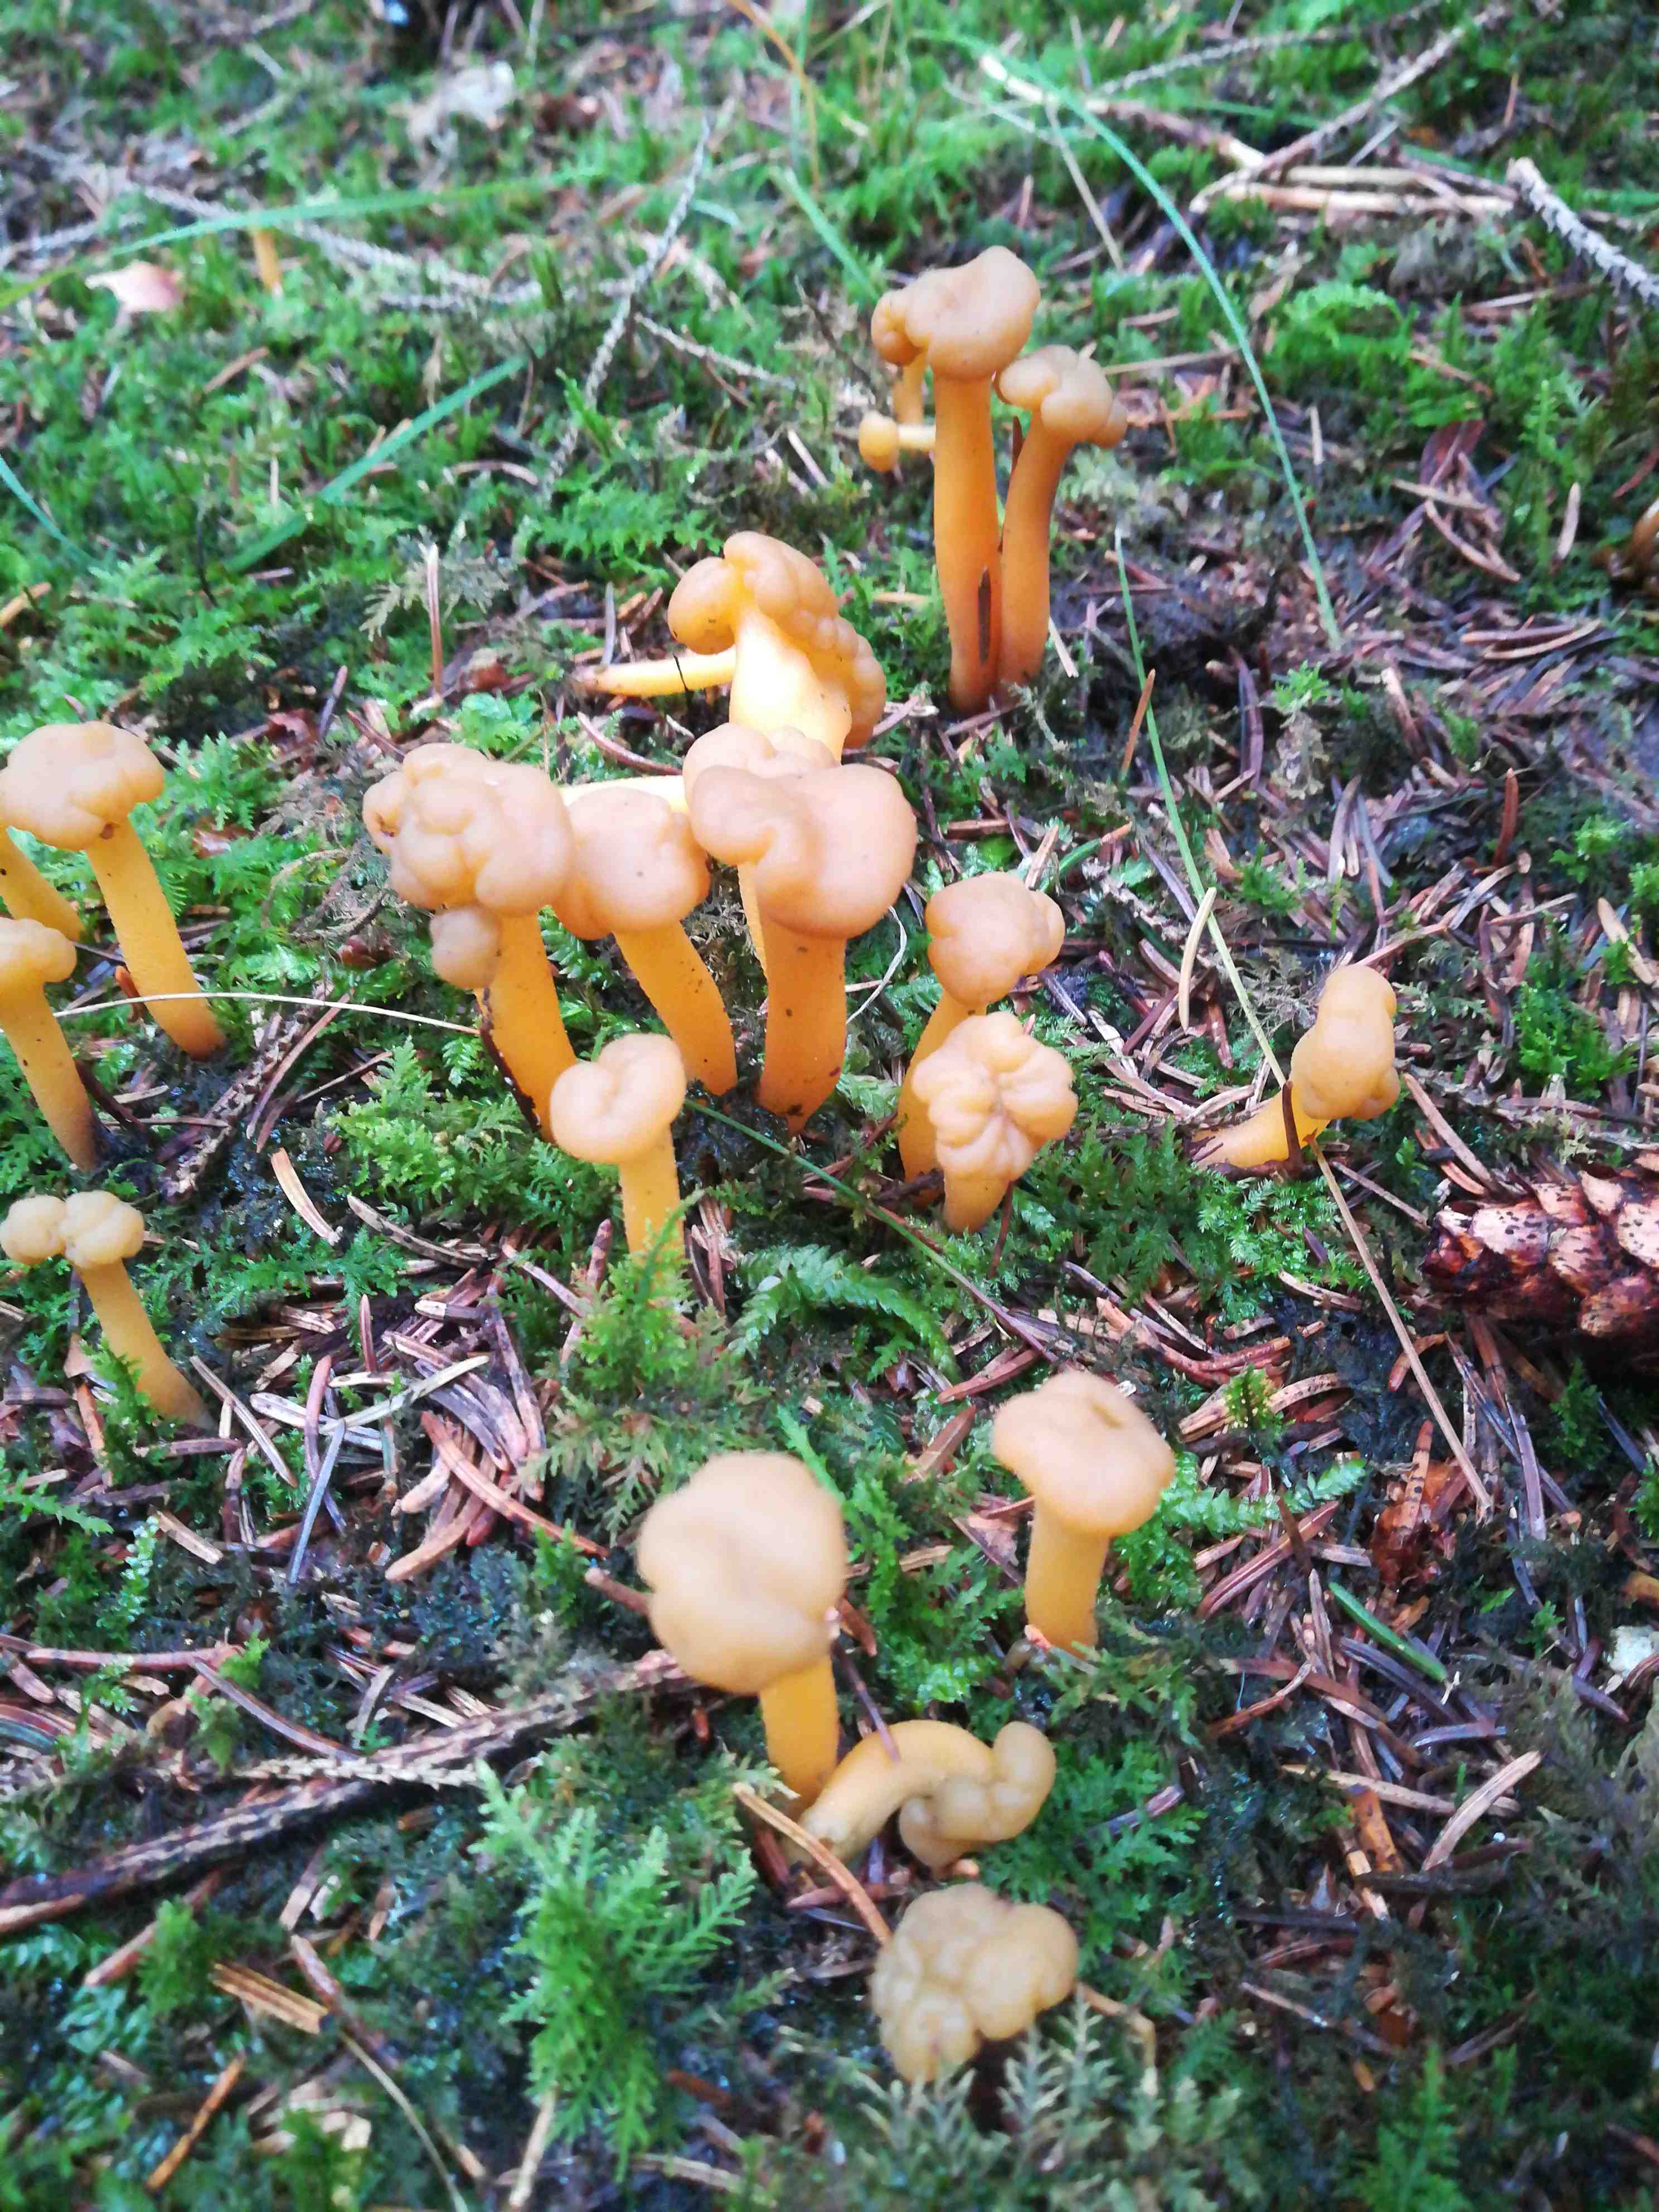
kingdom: Fungi
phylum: Ascomycota
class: Leotiomycetes
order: Leotiales
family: Leotiaceae
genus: Leotia
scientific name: Leotia lubrica
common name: ravsvamp
